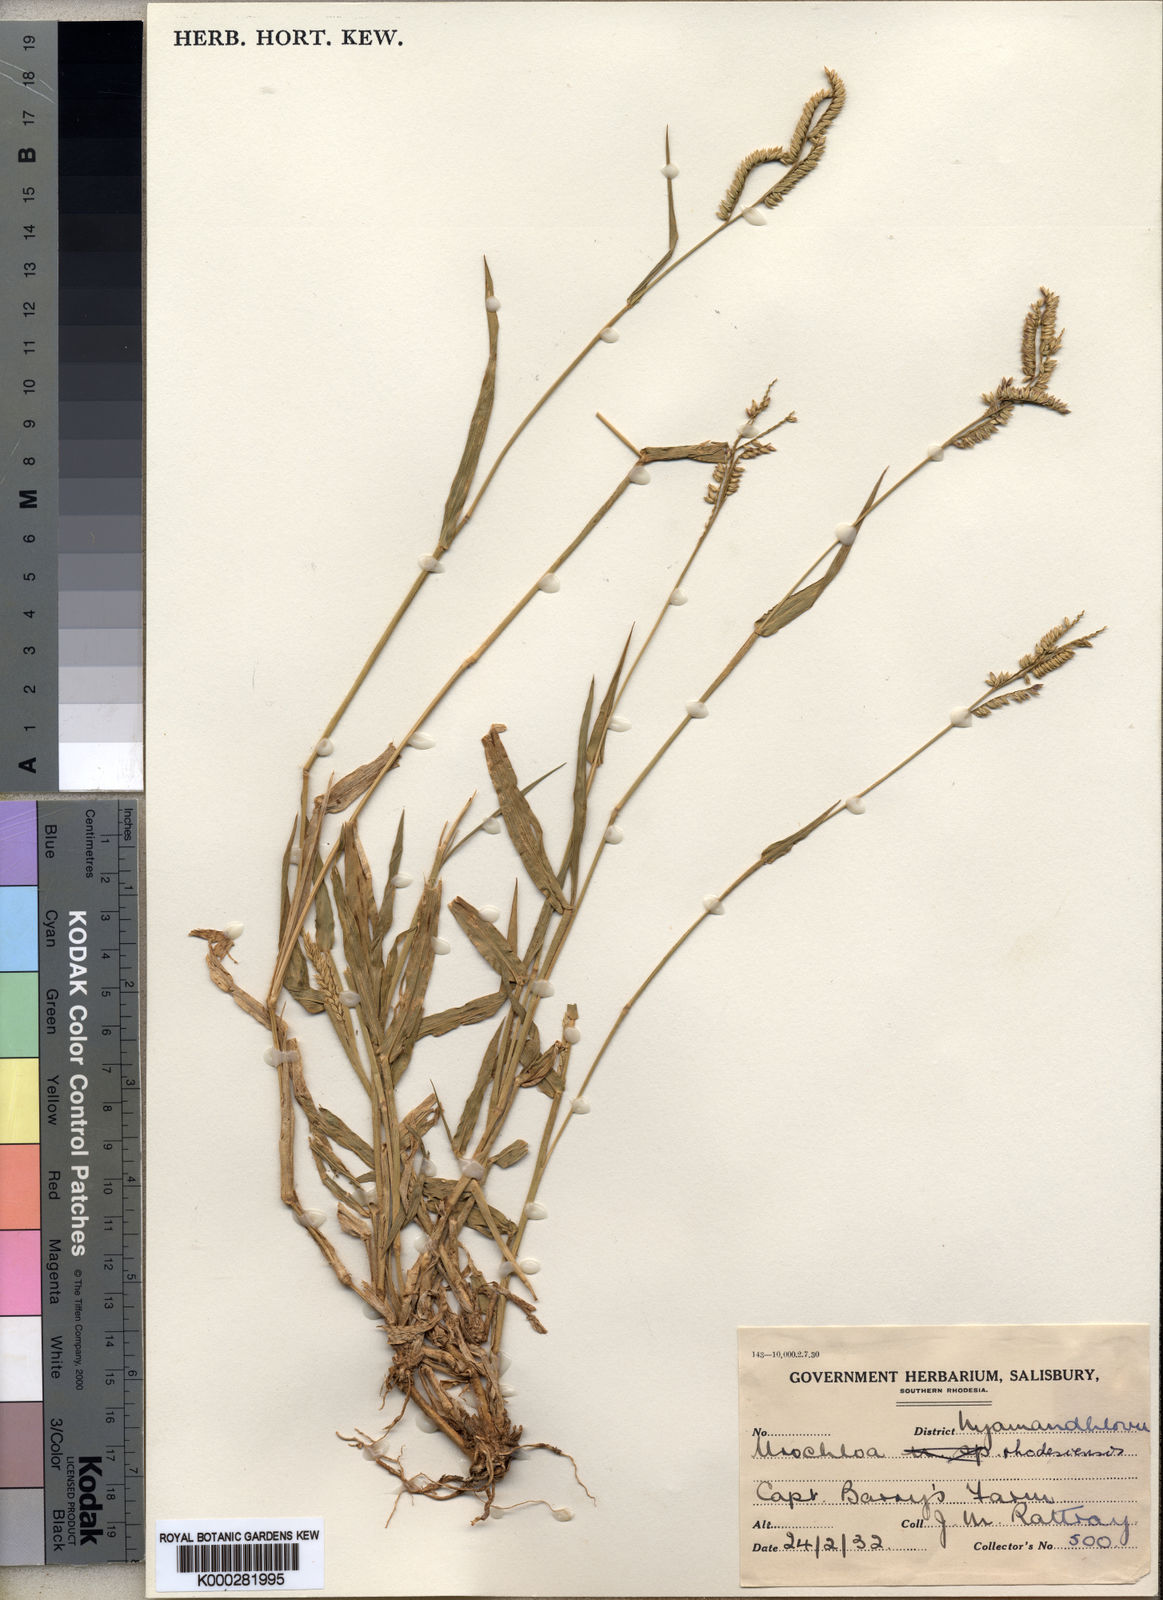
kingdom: Plantae
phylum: Tracheophyta
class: Liliopsida
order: Poales
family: Poaceae
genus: Urochloa
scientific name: Urochloa trichopus
